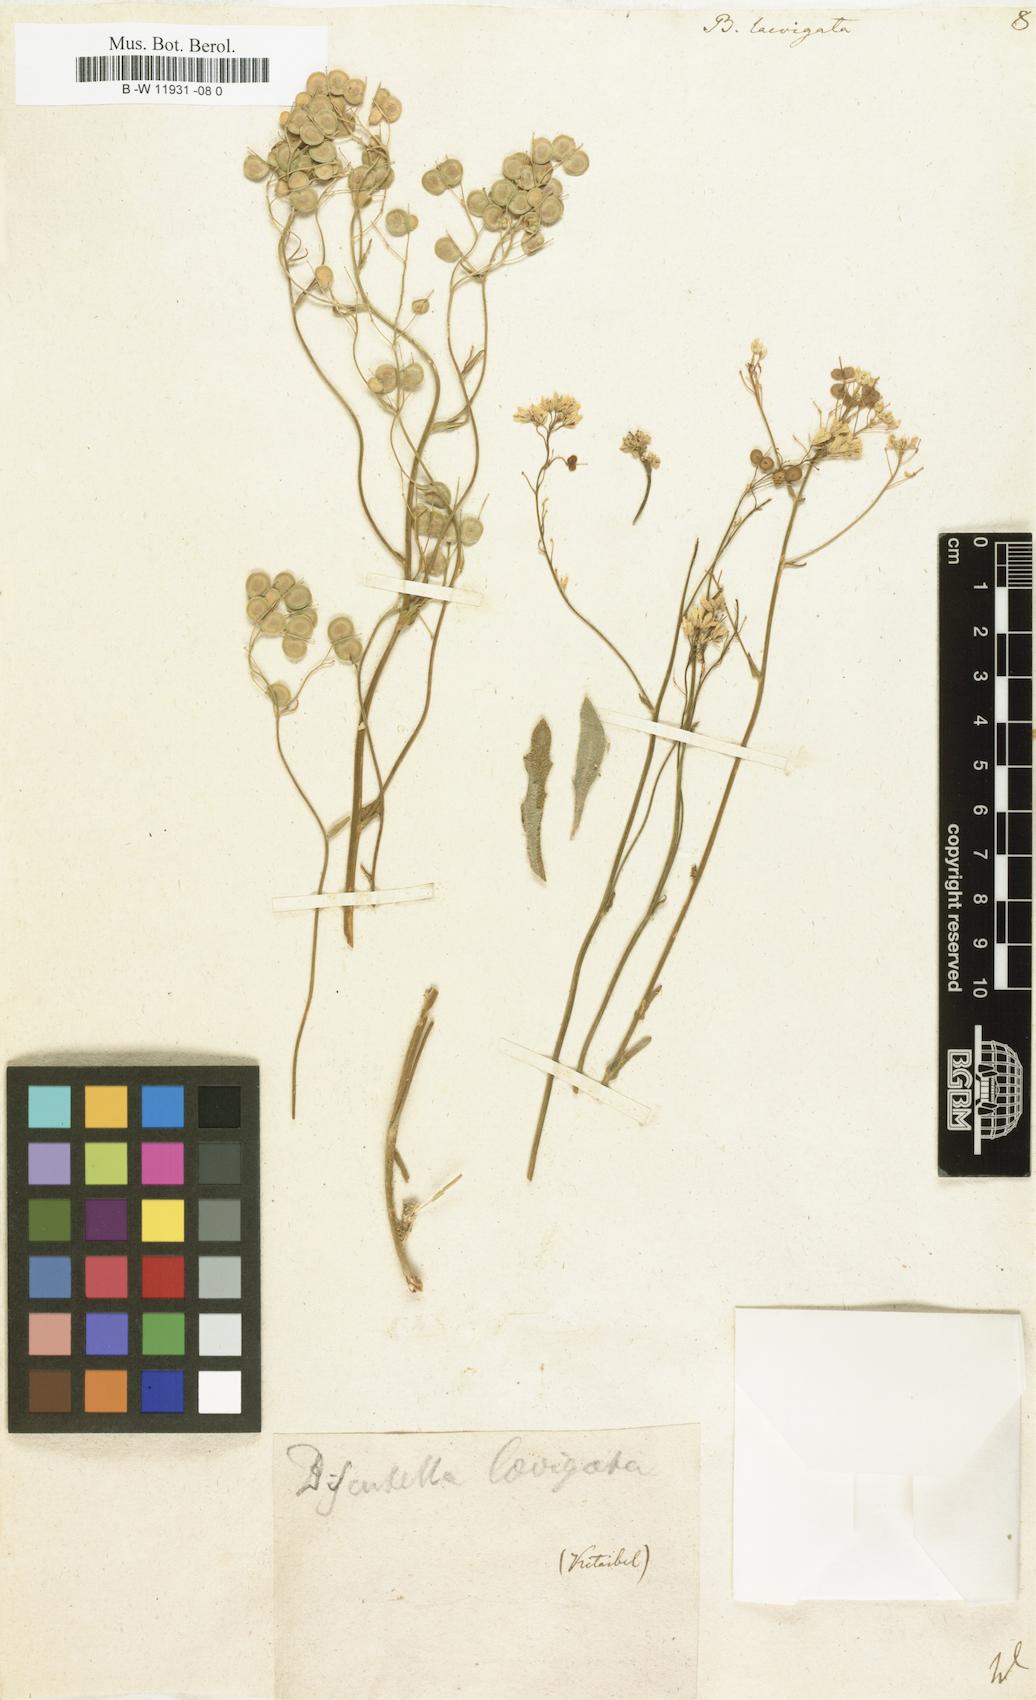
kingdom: Plantae
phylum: Tracheophyta
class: Magnoliopsida
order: Brassicales
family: Brassicaceae
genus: Biscutella
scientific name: Biscutella laevigata
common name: Buckler mustard
